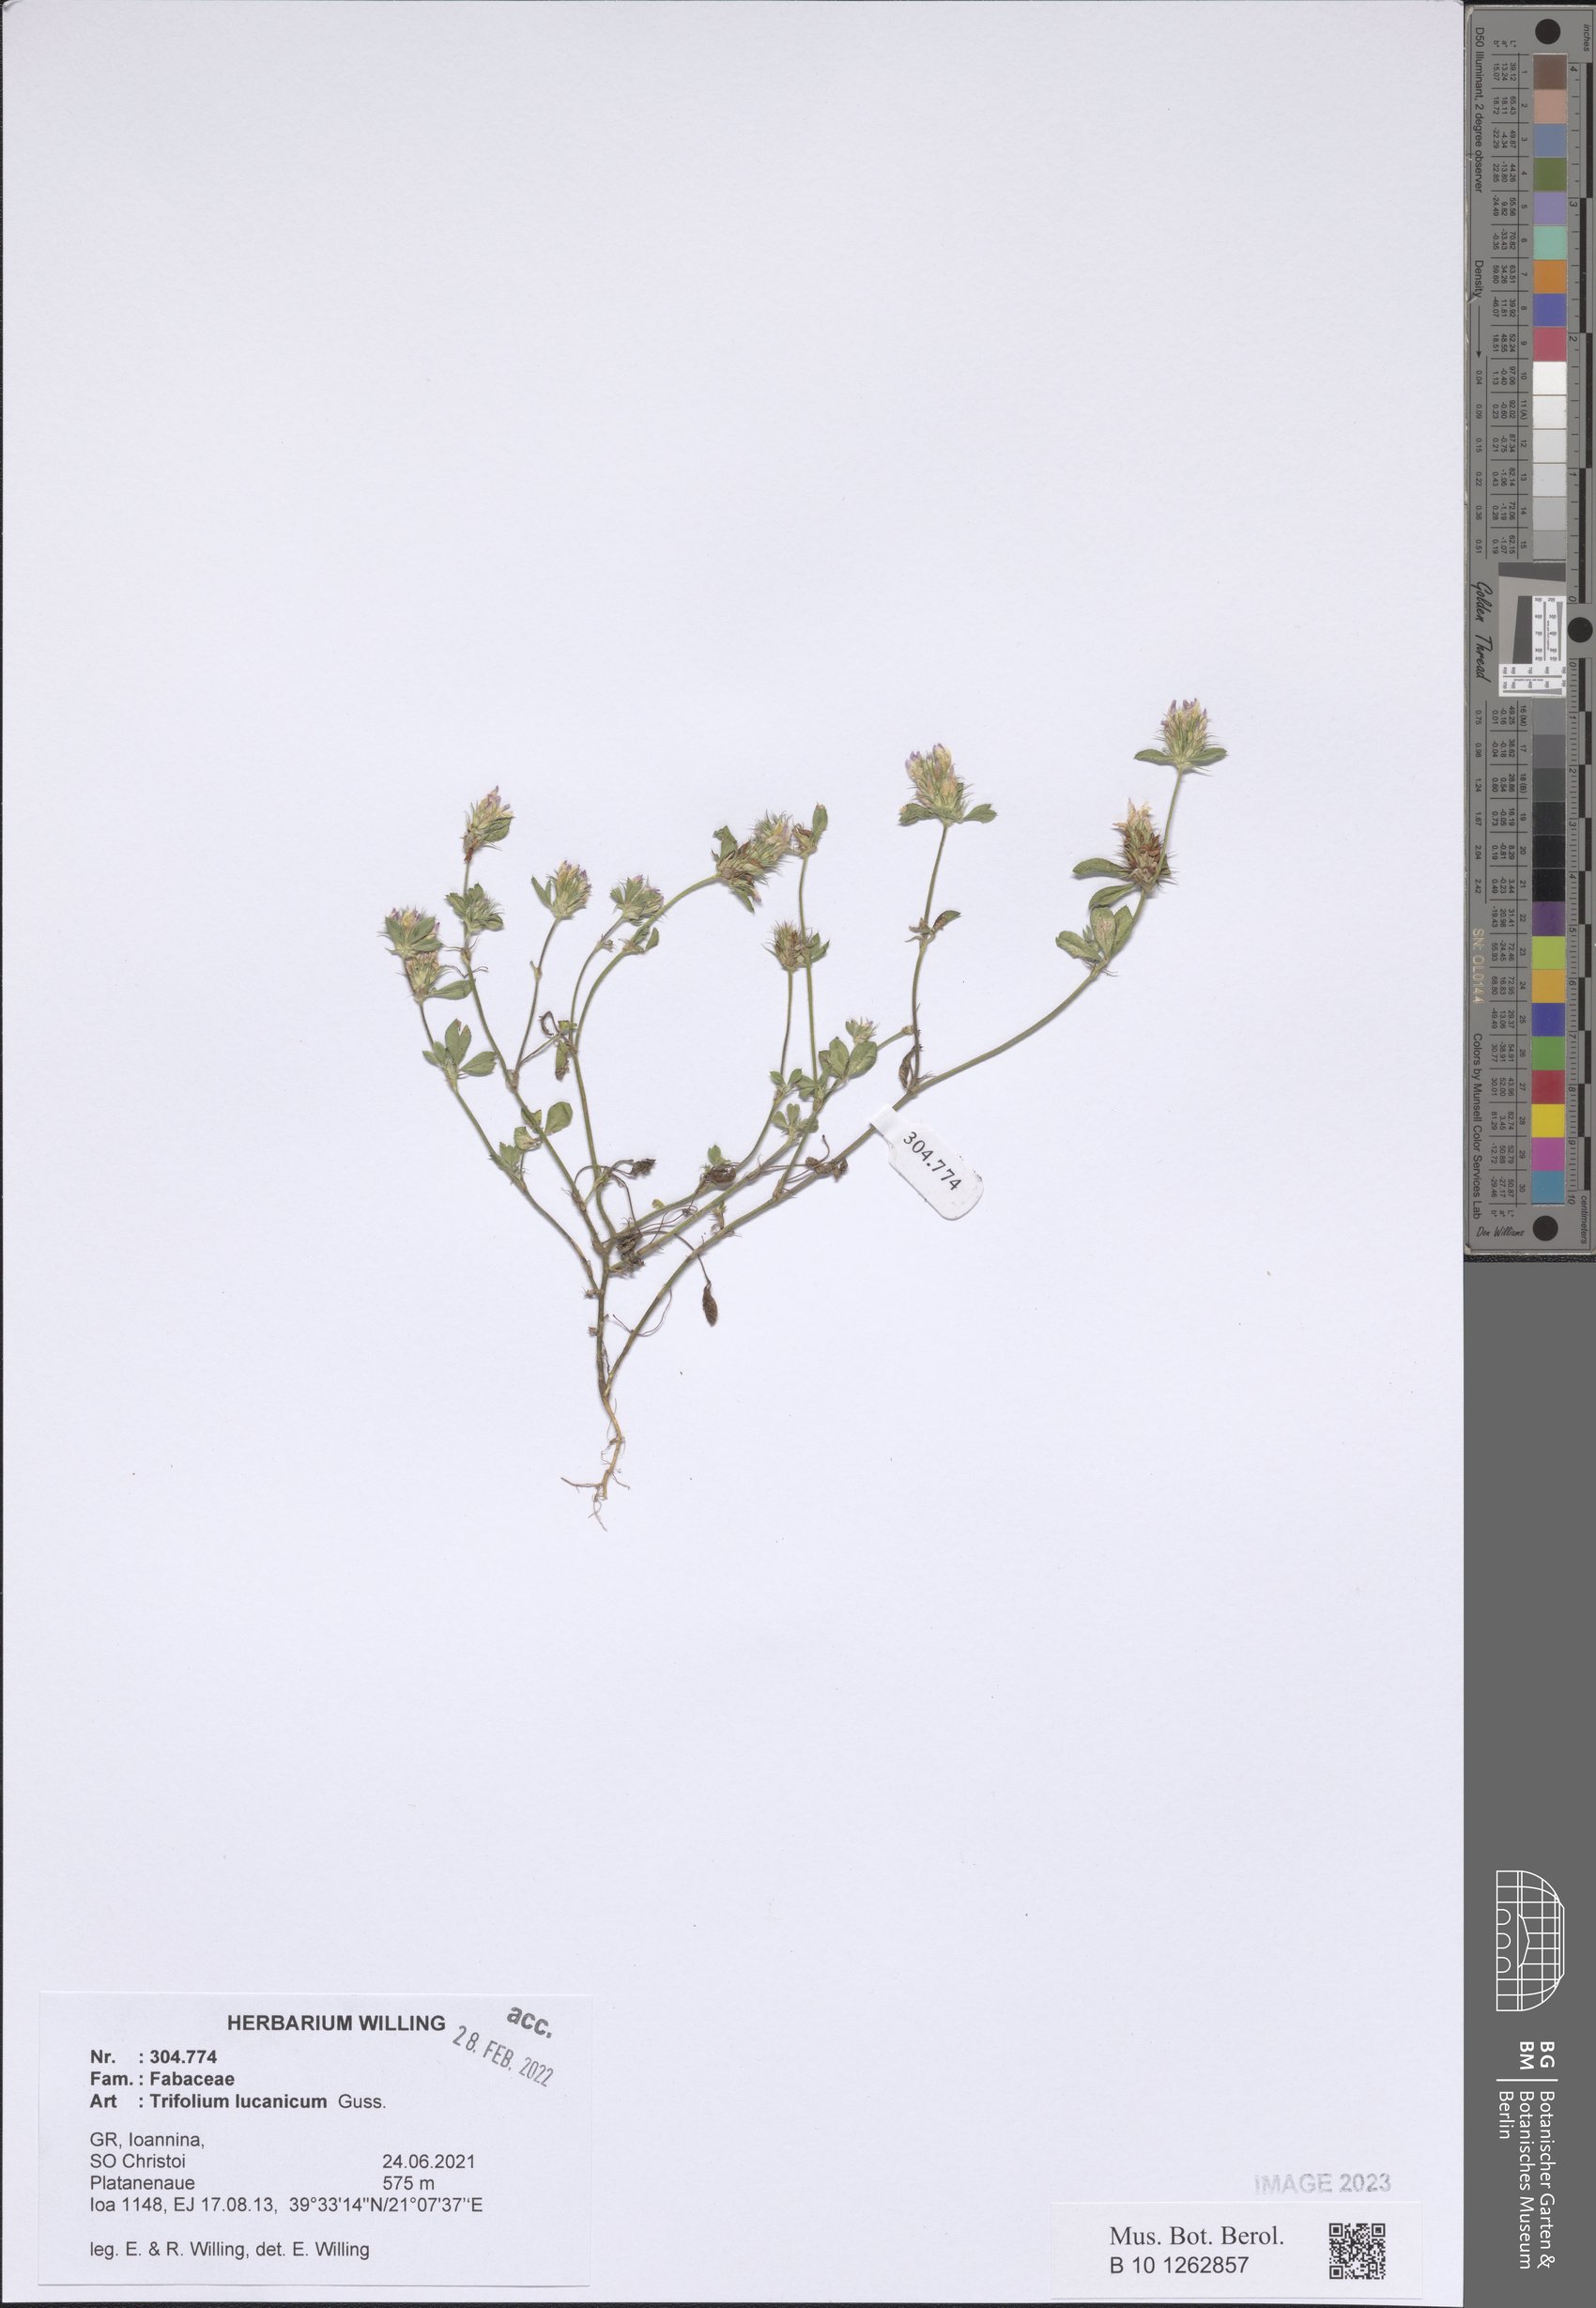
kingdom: Plantae
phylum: Tracheophyta
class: Magnoliopsida
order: Fabales
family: Fabaceae
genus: Trifolium
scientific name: Trifolium lucanicum
